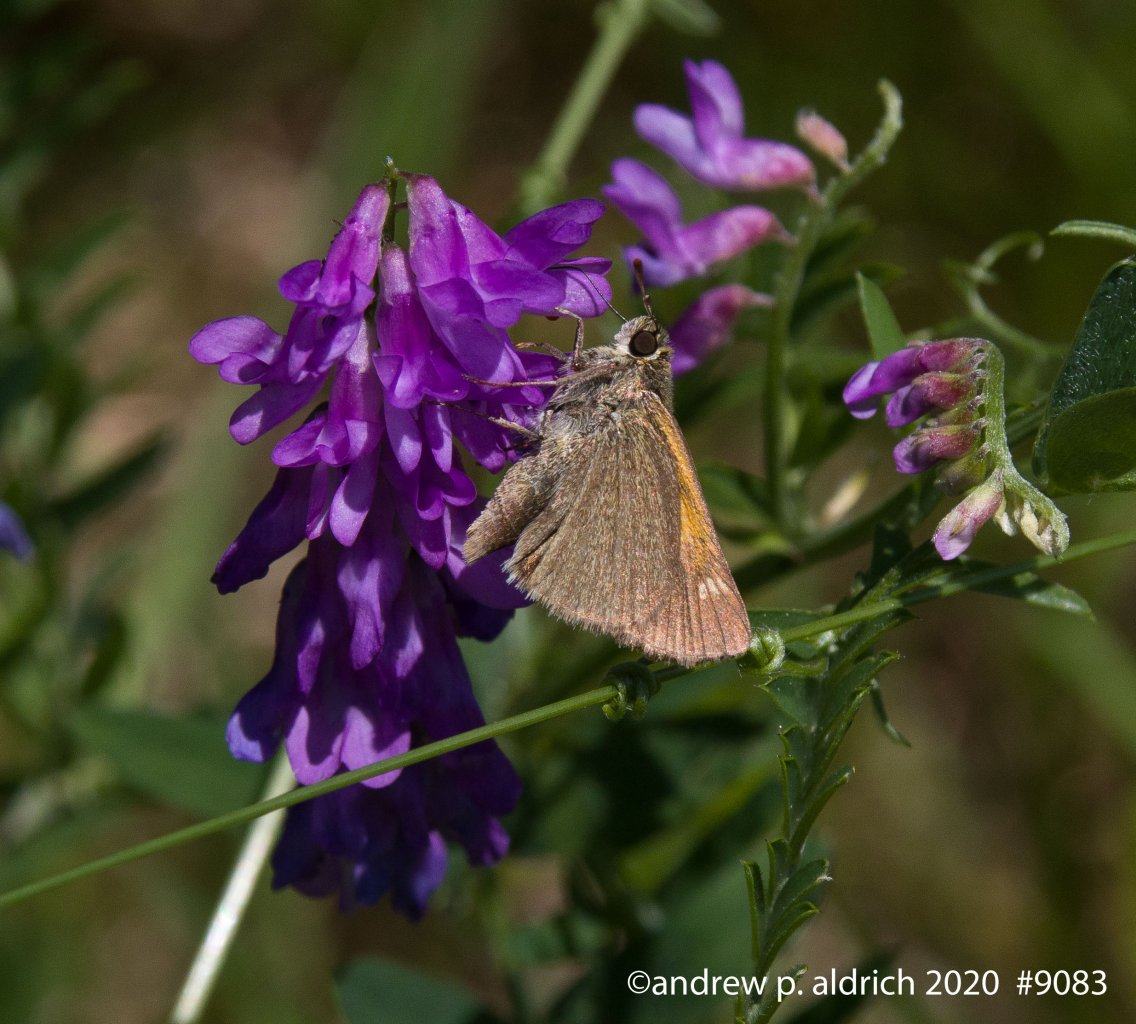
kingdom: Animalia
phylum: Arthropoda
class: Insecta
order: Lepidoptera
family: Hesperiidae
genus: Polites
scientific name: Polites themistocles
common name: Tawny-edged Skipper
